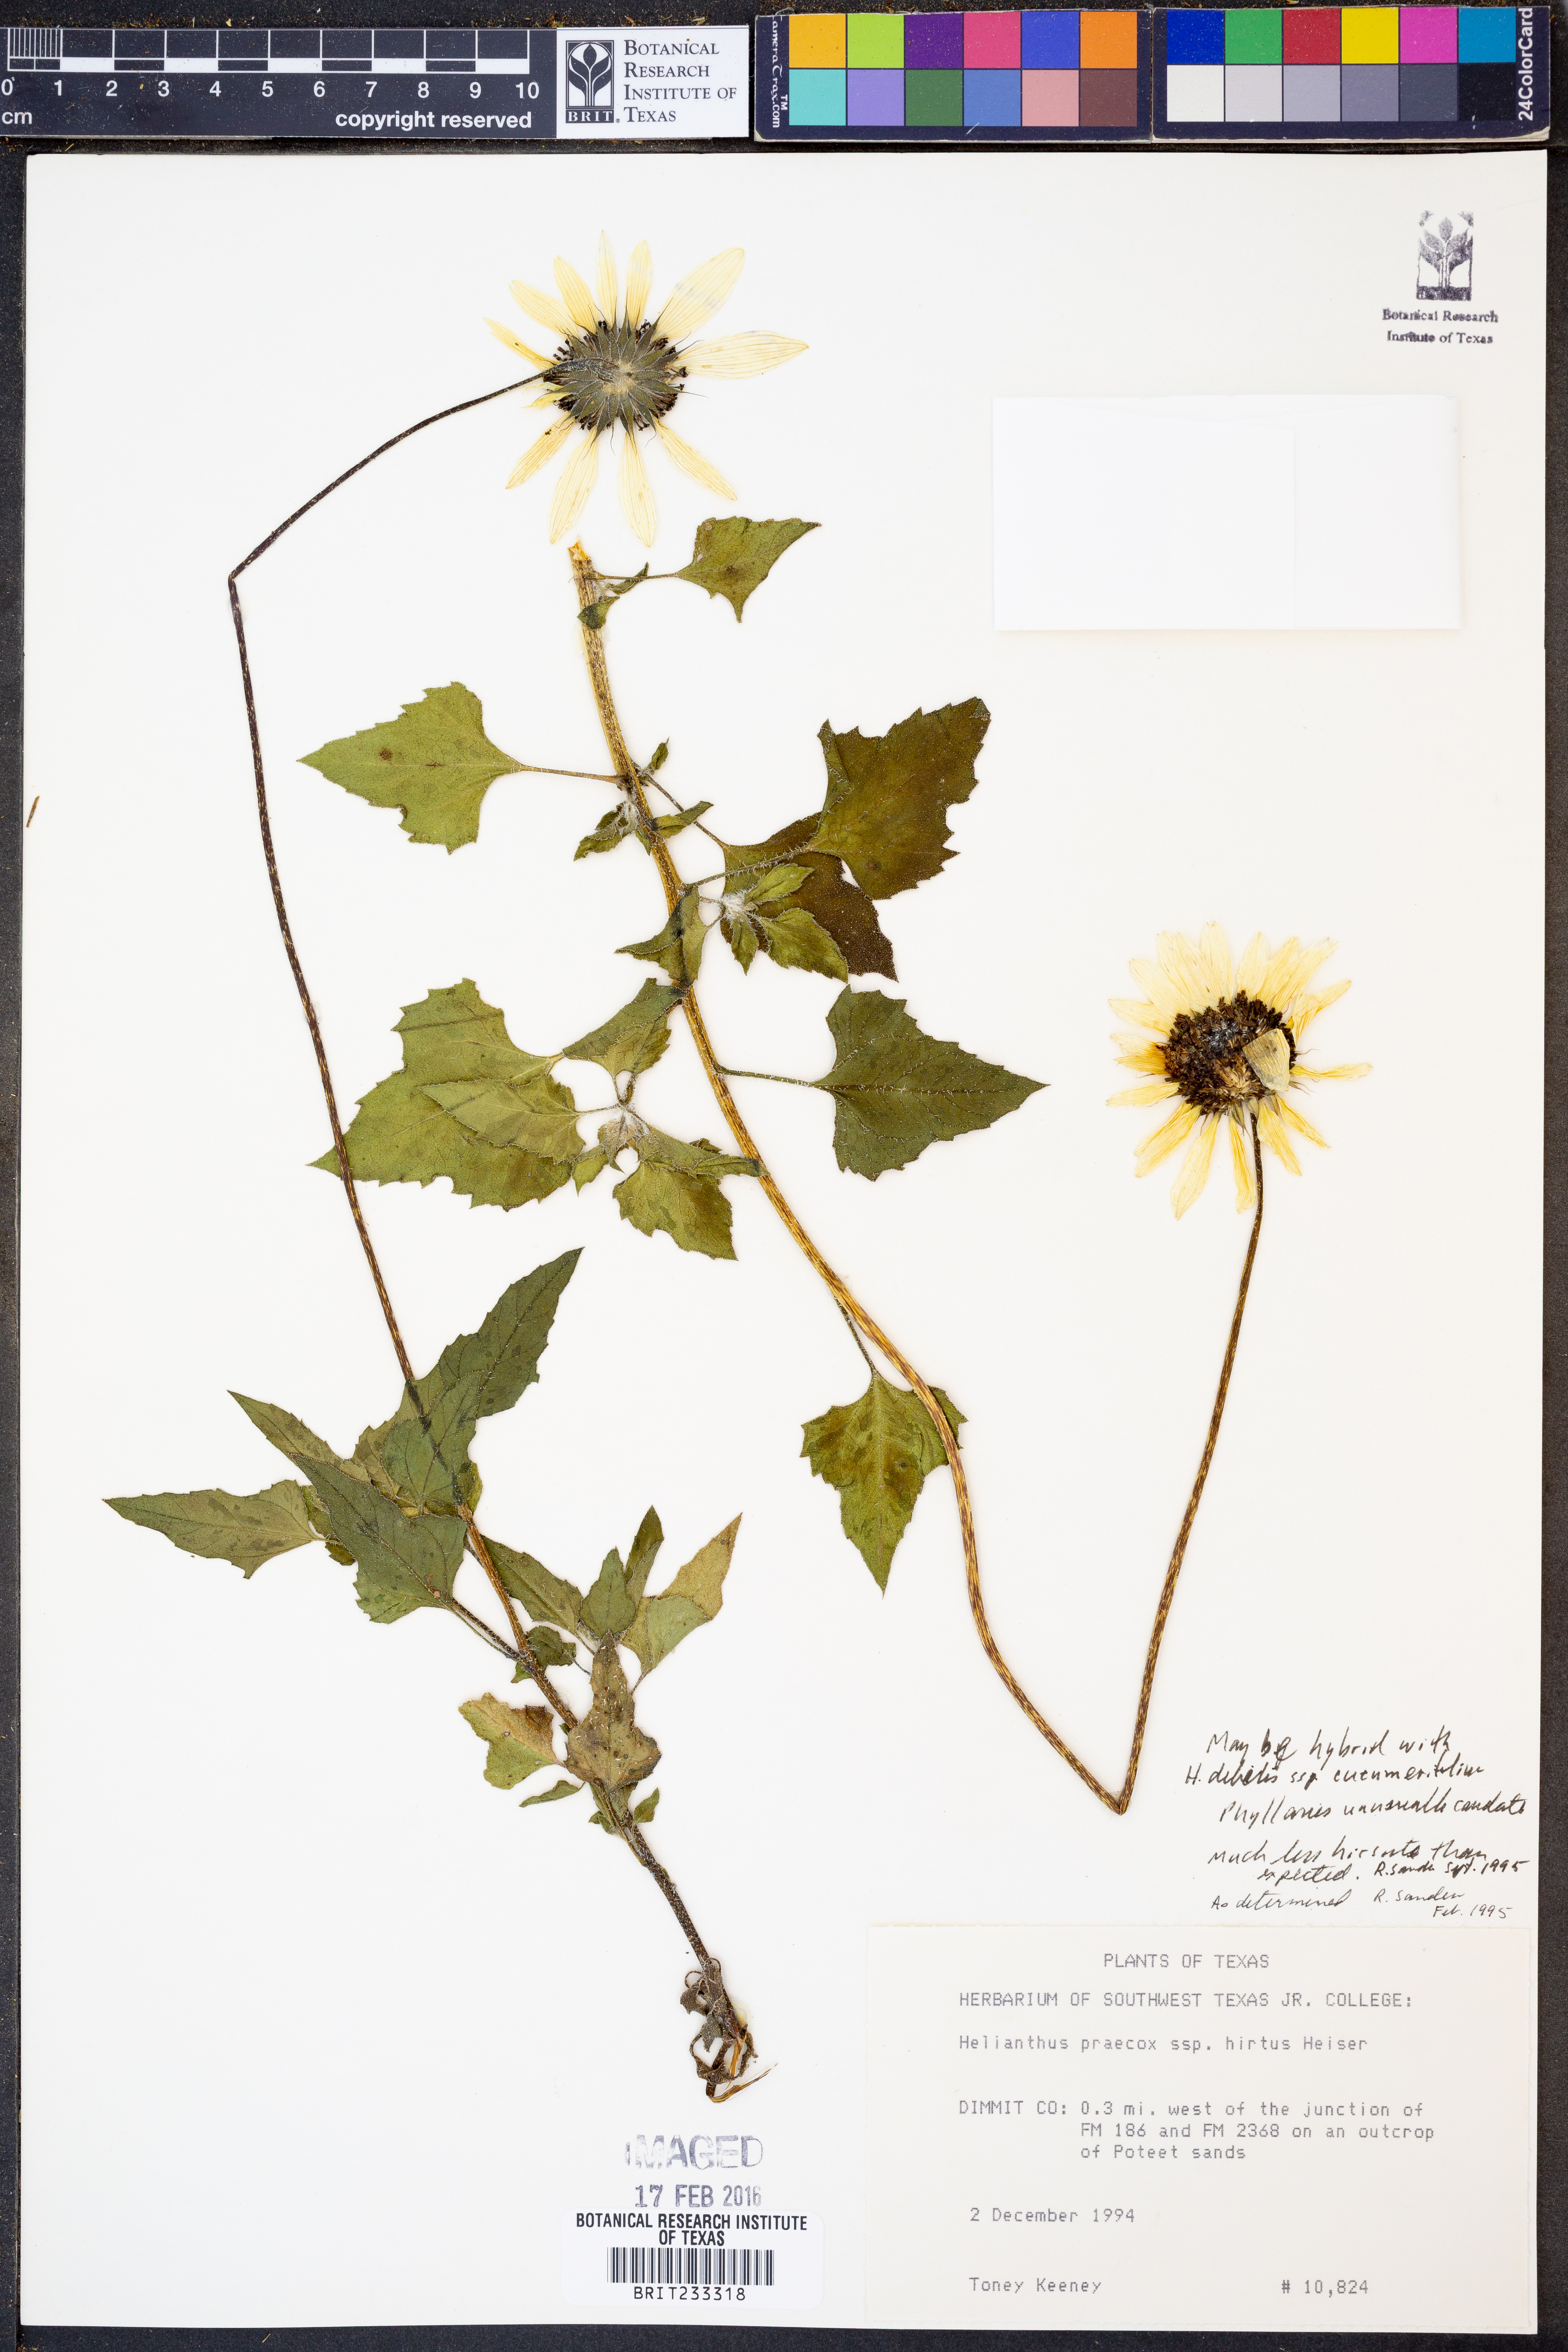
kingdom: Plantae
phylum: Tracheophyta
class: Magnoliopsida
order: Asterales
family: Asteraceae
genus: Helianthus
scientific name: Helianthus praecox
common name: Texas sunflower
